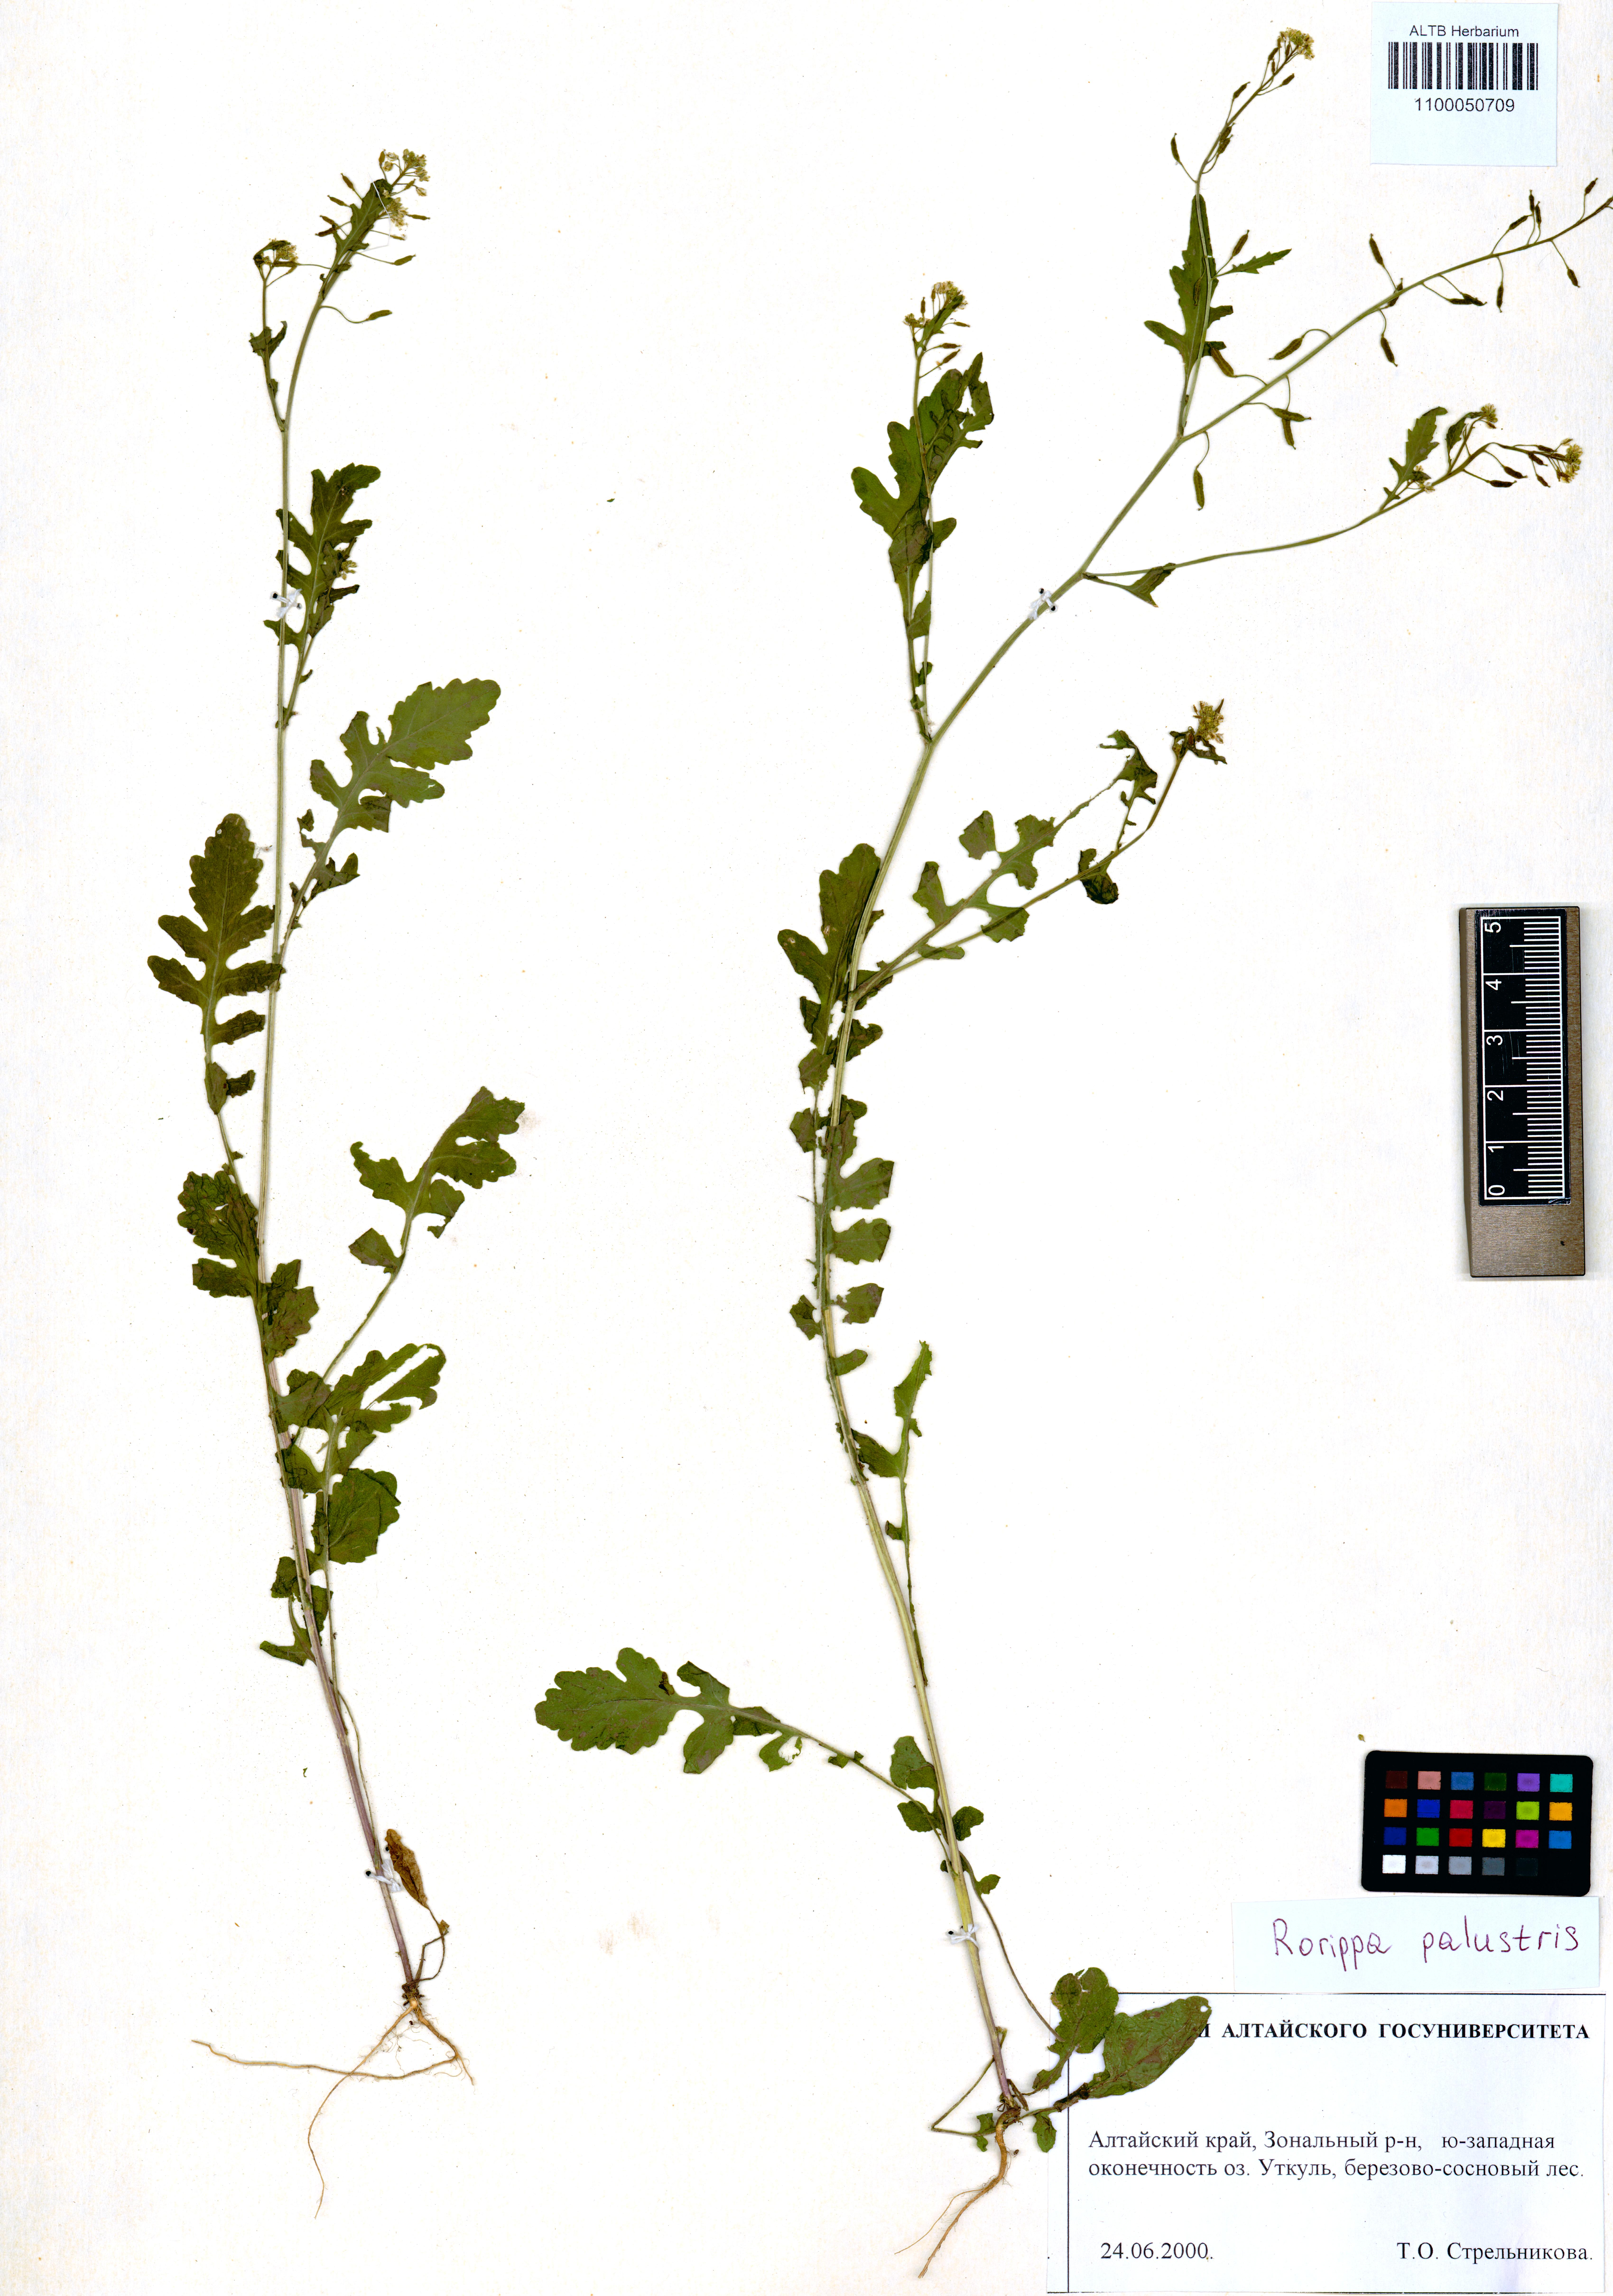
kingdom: Plantae
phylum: Tracheophyta
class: Magnoliopsida
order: Brassicales
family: Brassicaceae
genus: Rorippa
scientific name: Rorippa palustris
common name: Marsh yellow-cress
